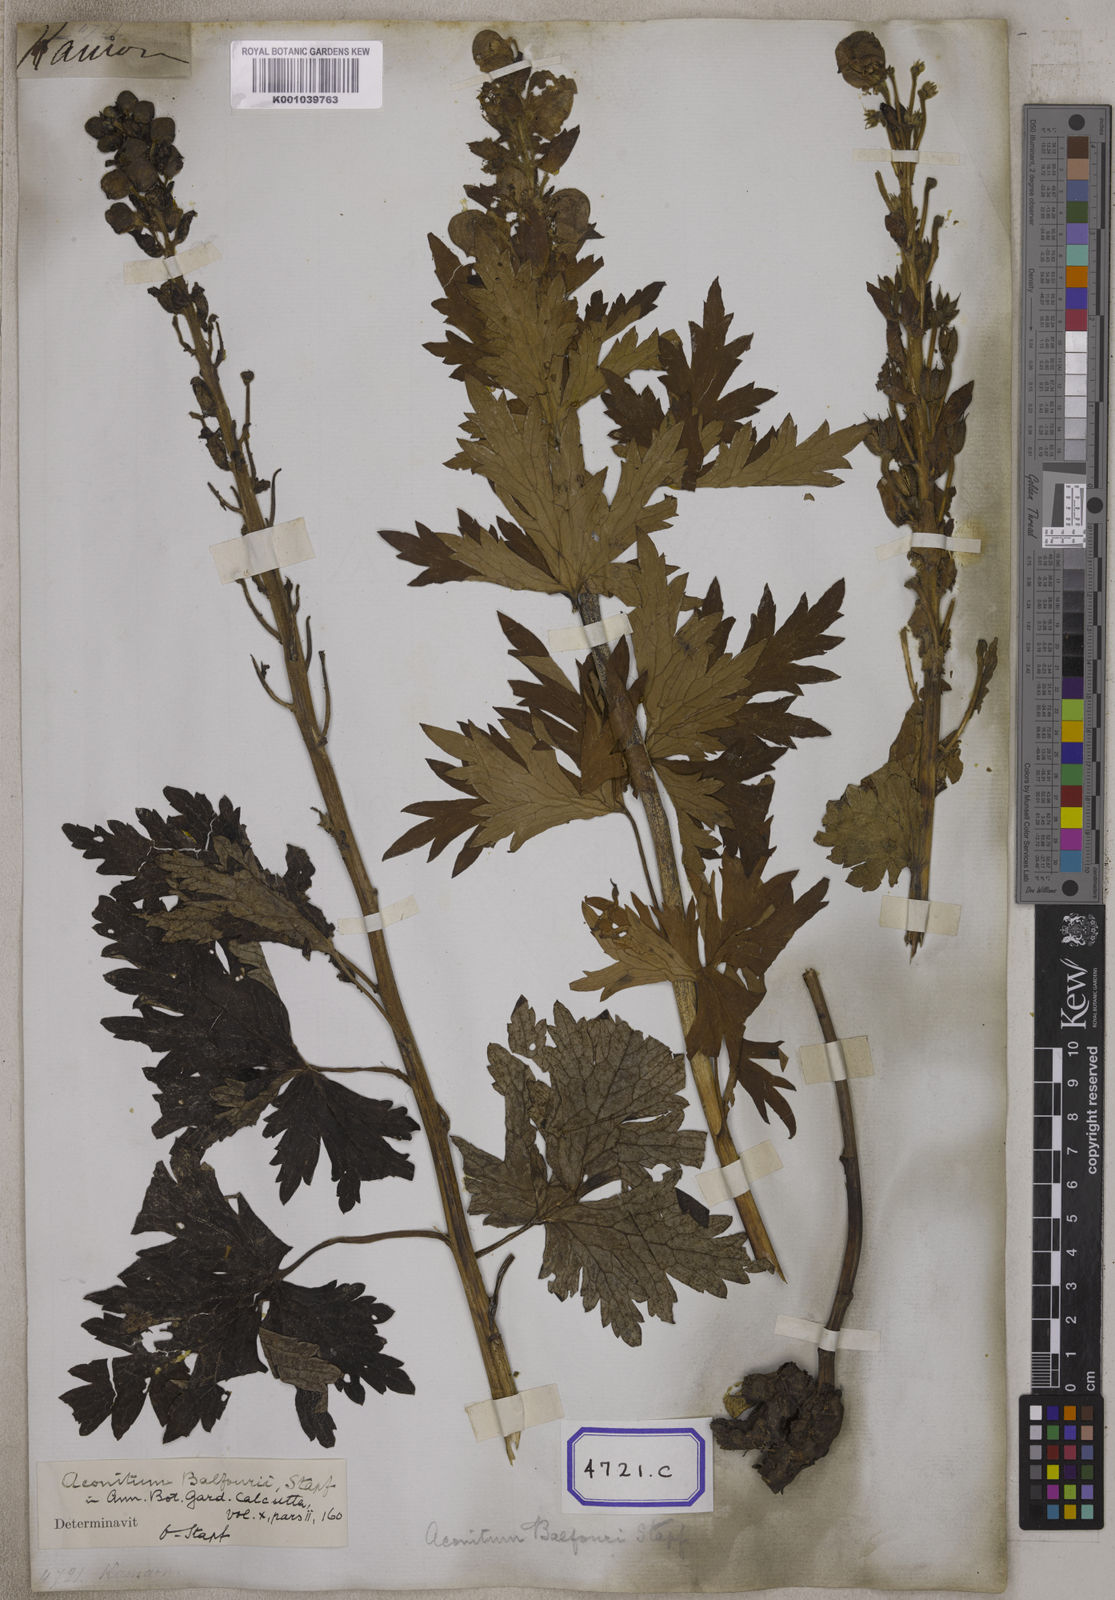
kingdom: Plantae
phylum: Tracheophyta
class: Magnoliopsida
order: Ranunculales
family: Ranunculaceae
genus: Aconitum
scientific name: Aconitum
